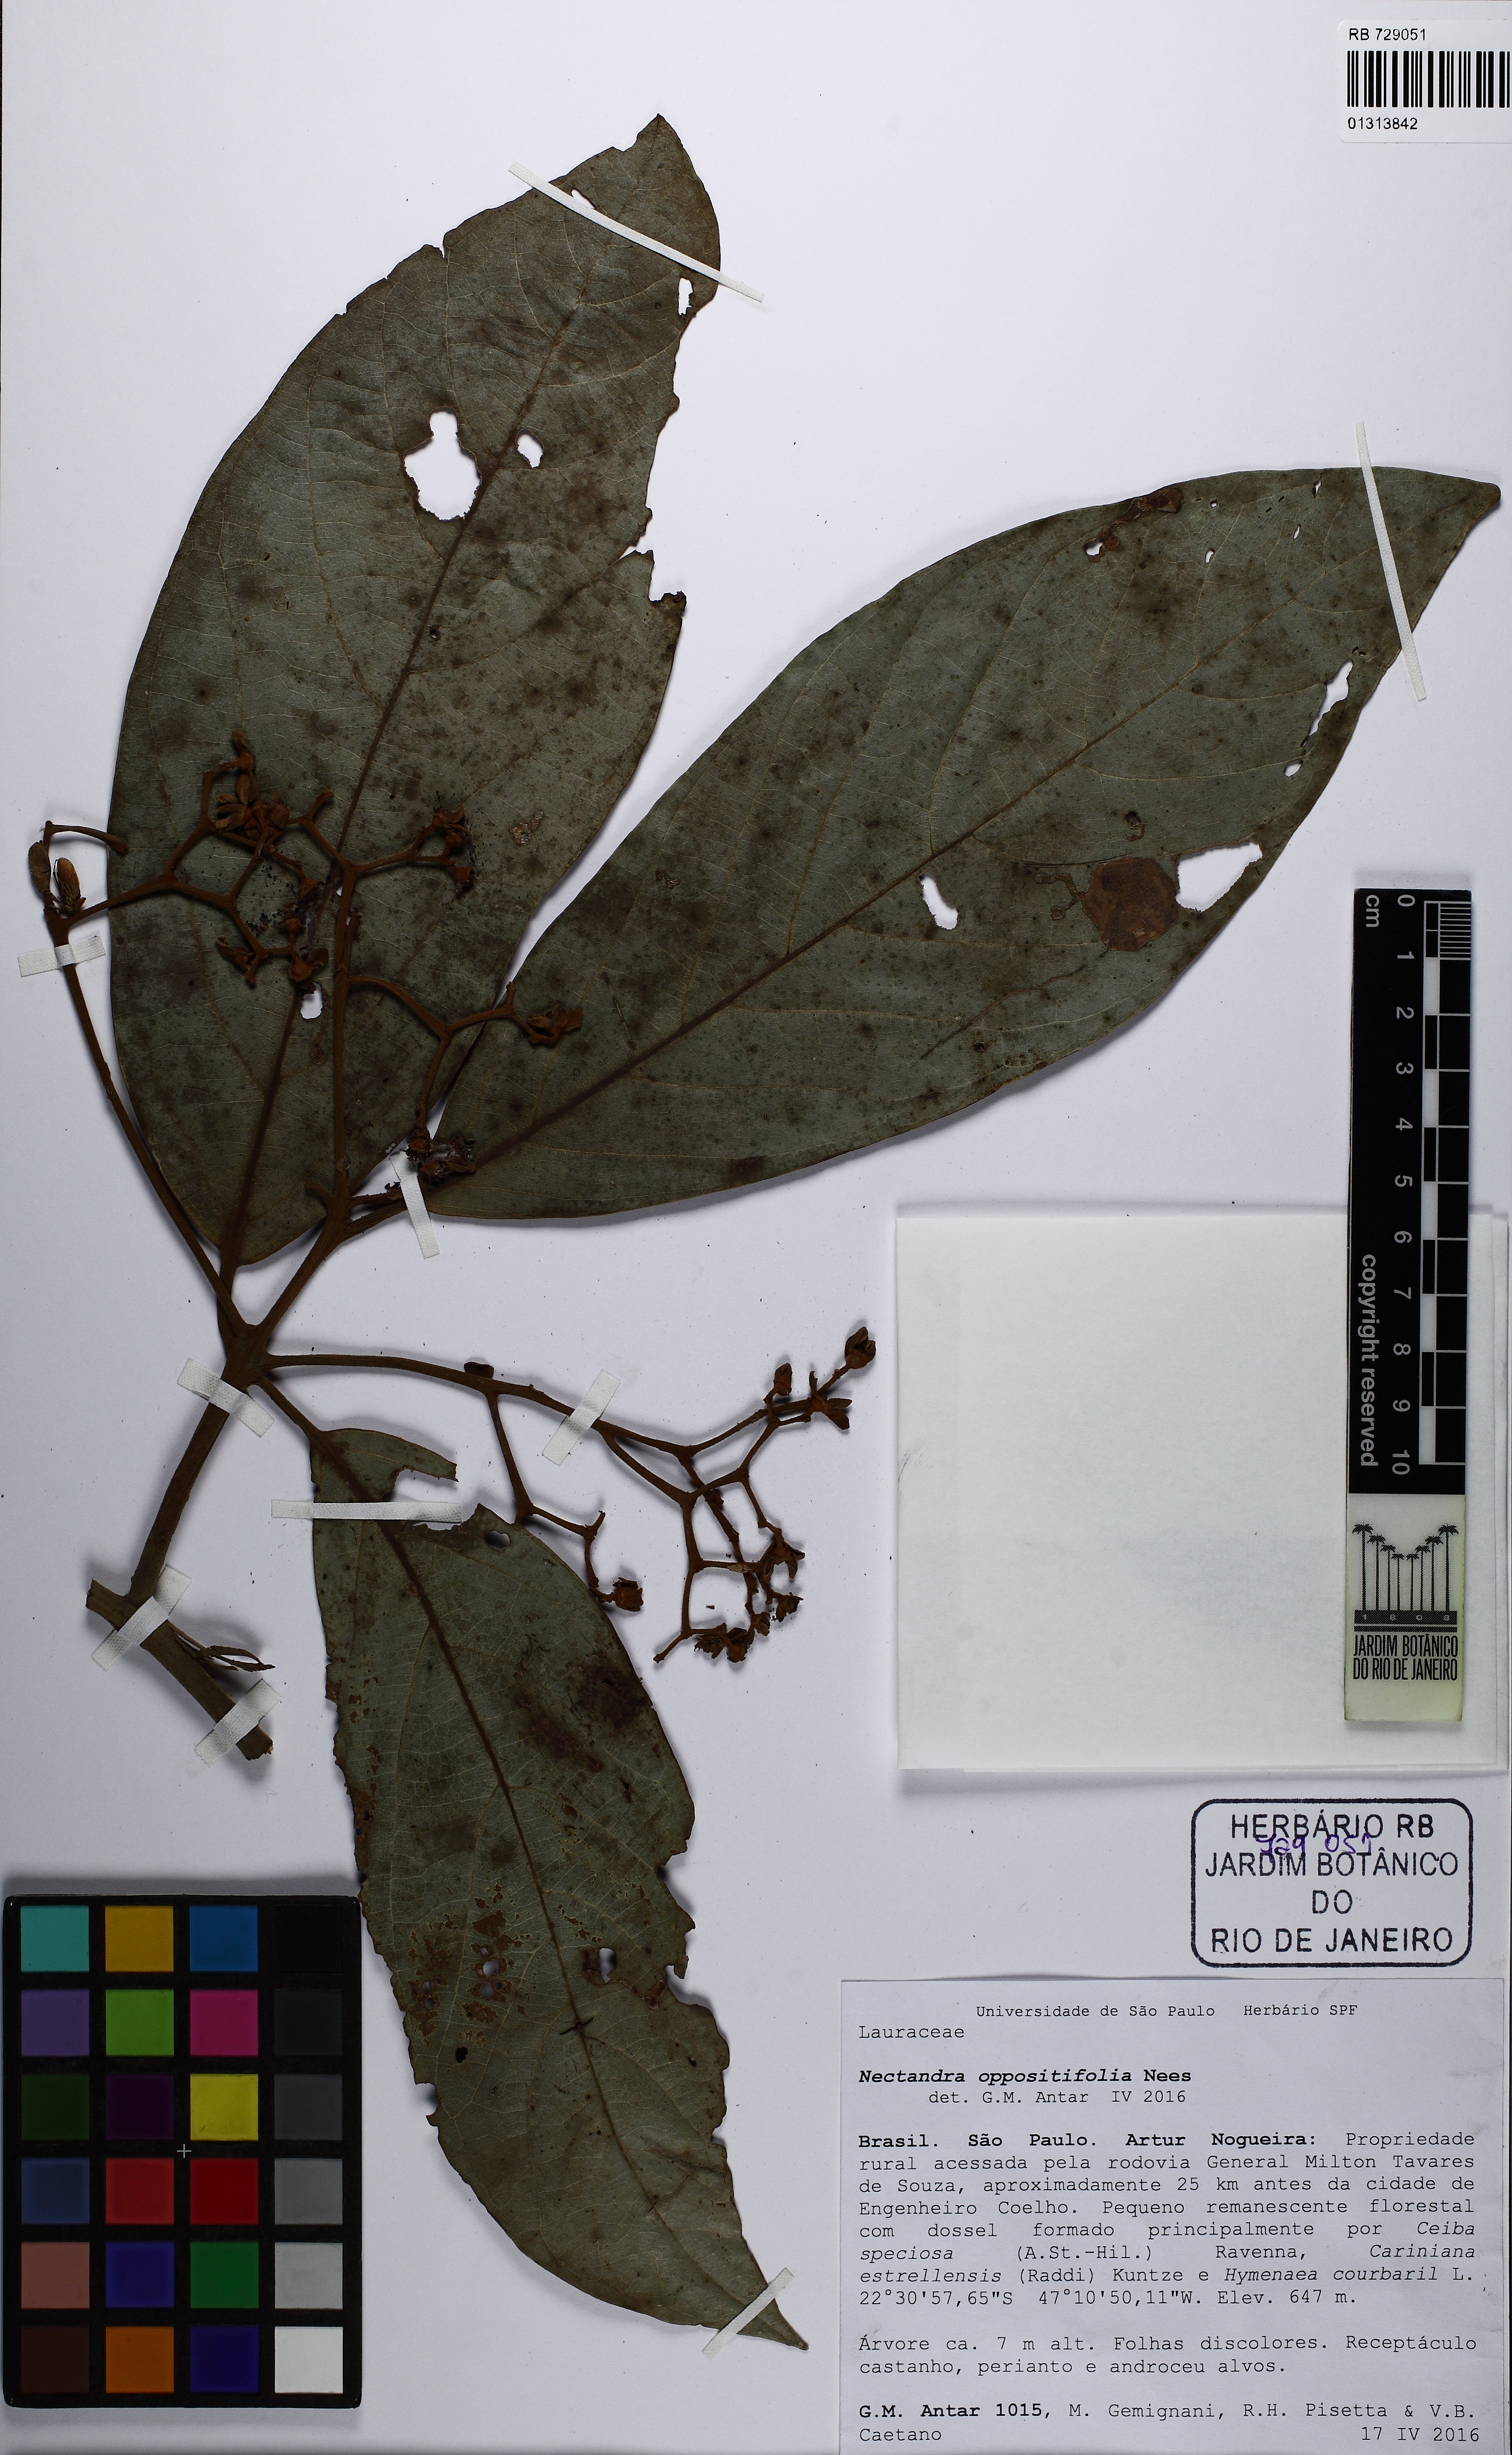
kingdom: Plantae
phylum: Tracheophyta
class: Magnoliopsida
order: Laurales
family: Lauraceae
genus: Nectandra
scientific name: Nectandra oppositifolia
